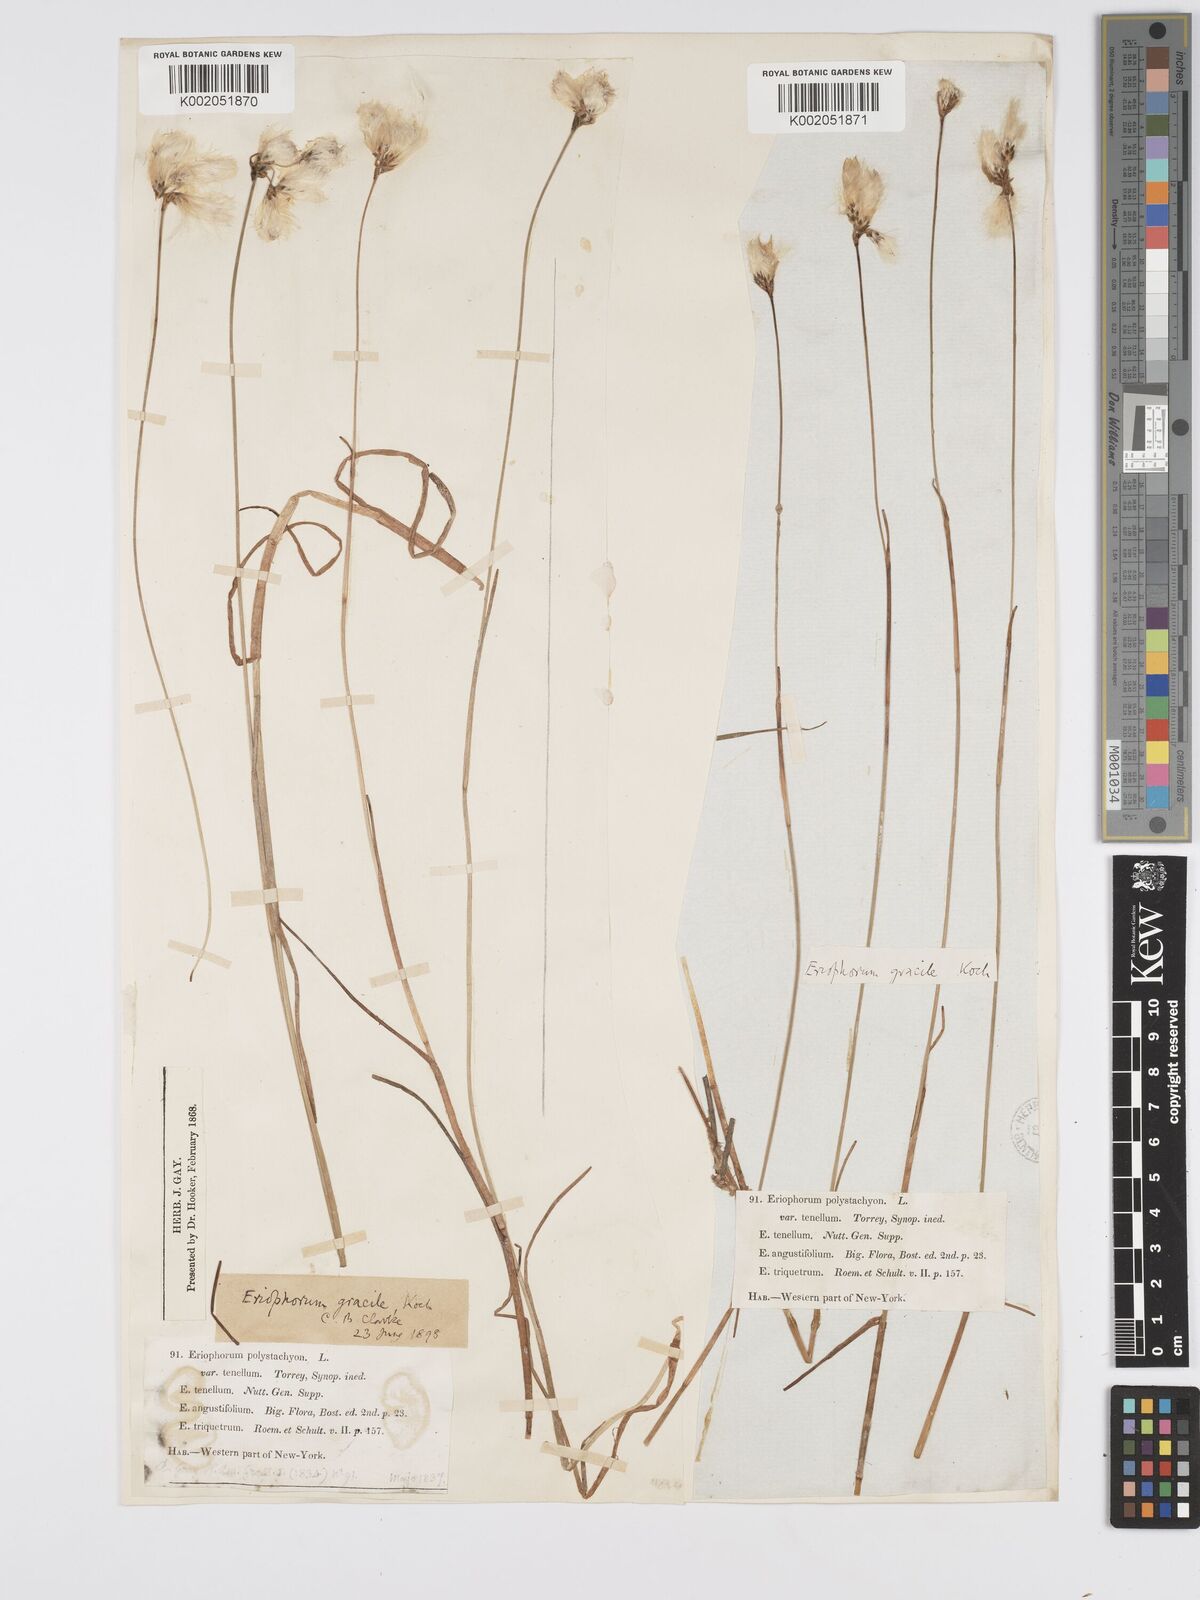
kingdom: Plantae
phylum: Tracheophyta
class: Liliopsida
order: Poales
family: Cyperaceae
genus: Eriophorum
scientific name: Eriophorum gracile
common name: Slender cottongrass
